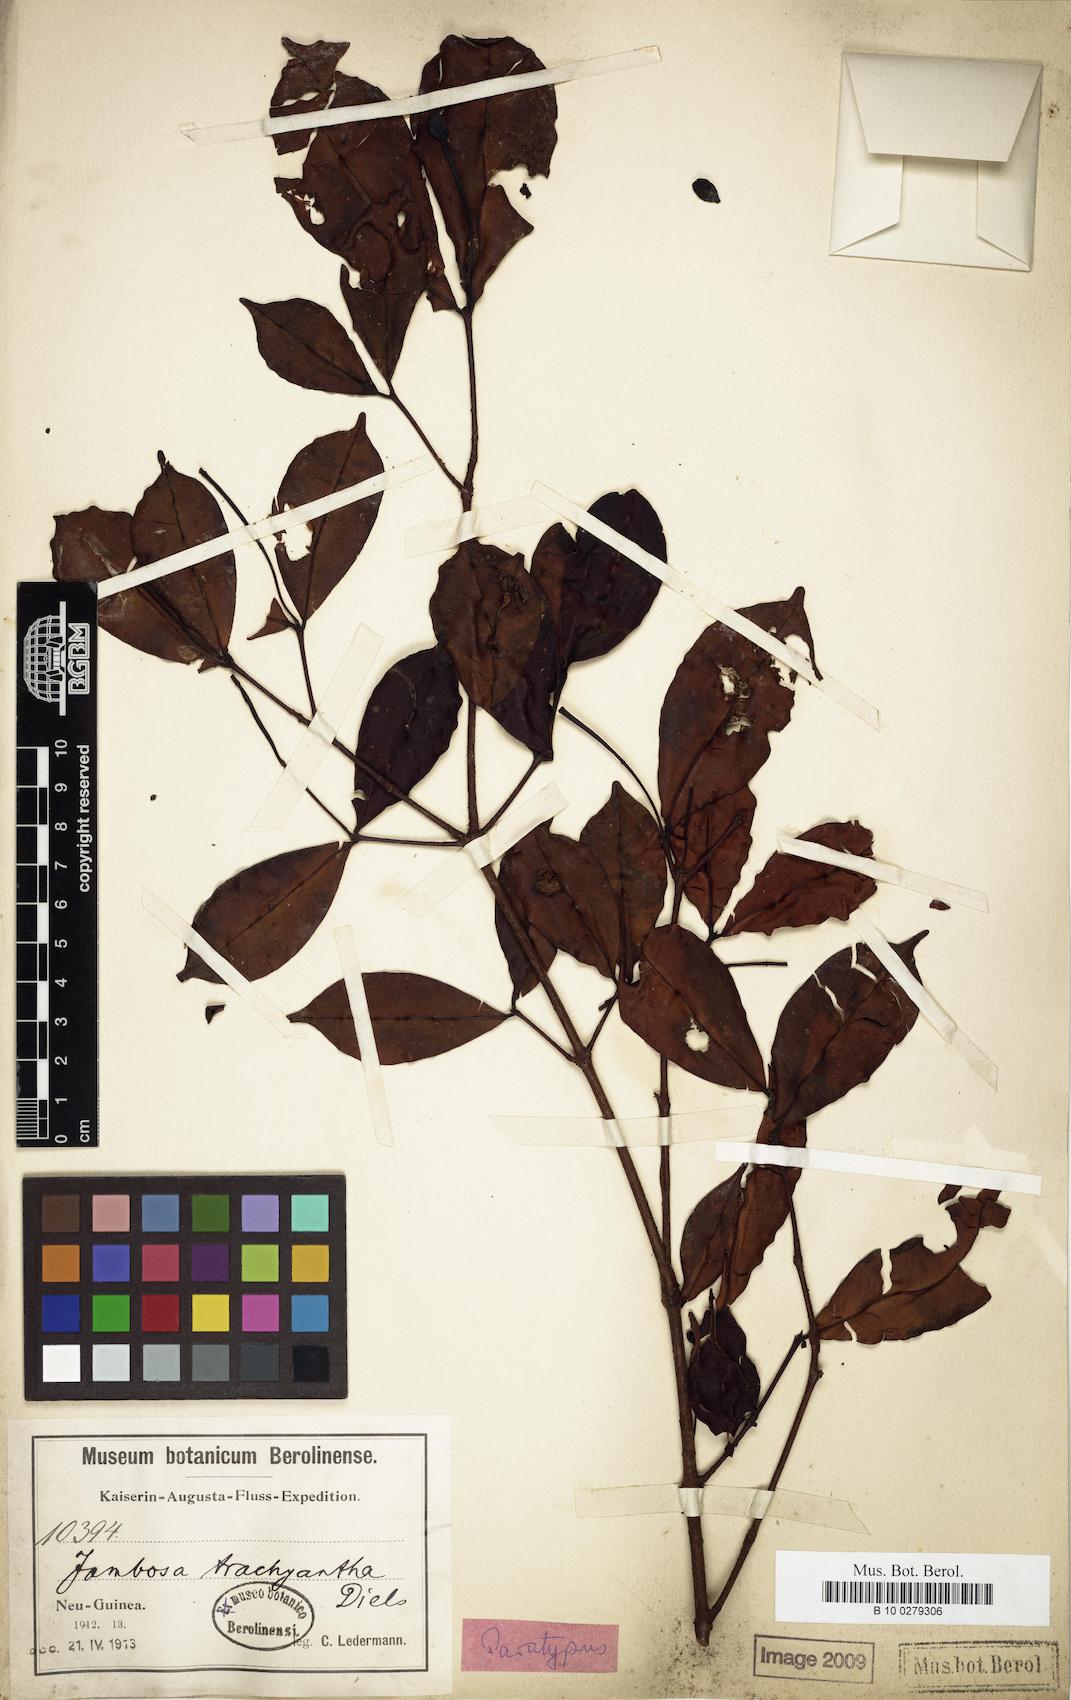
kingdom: Plantae
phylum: Tracheophyta
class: Magnoliopsida
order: Myrtales
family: Myrtaceae
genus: Syzygium
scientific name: Syzygium trachyanthum
